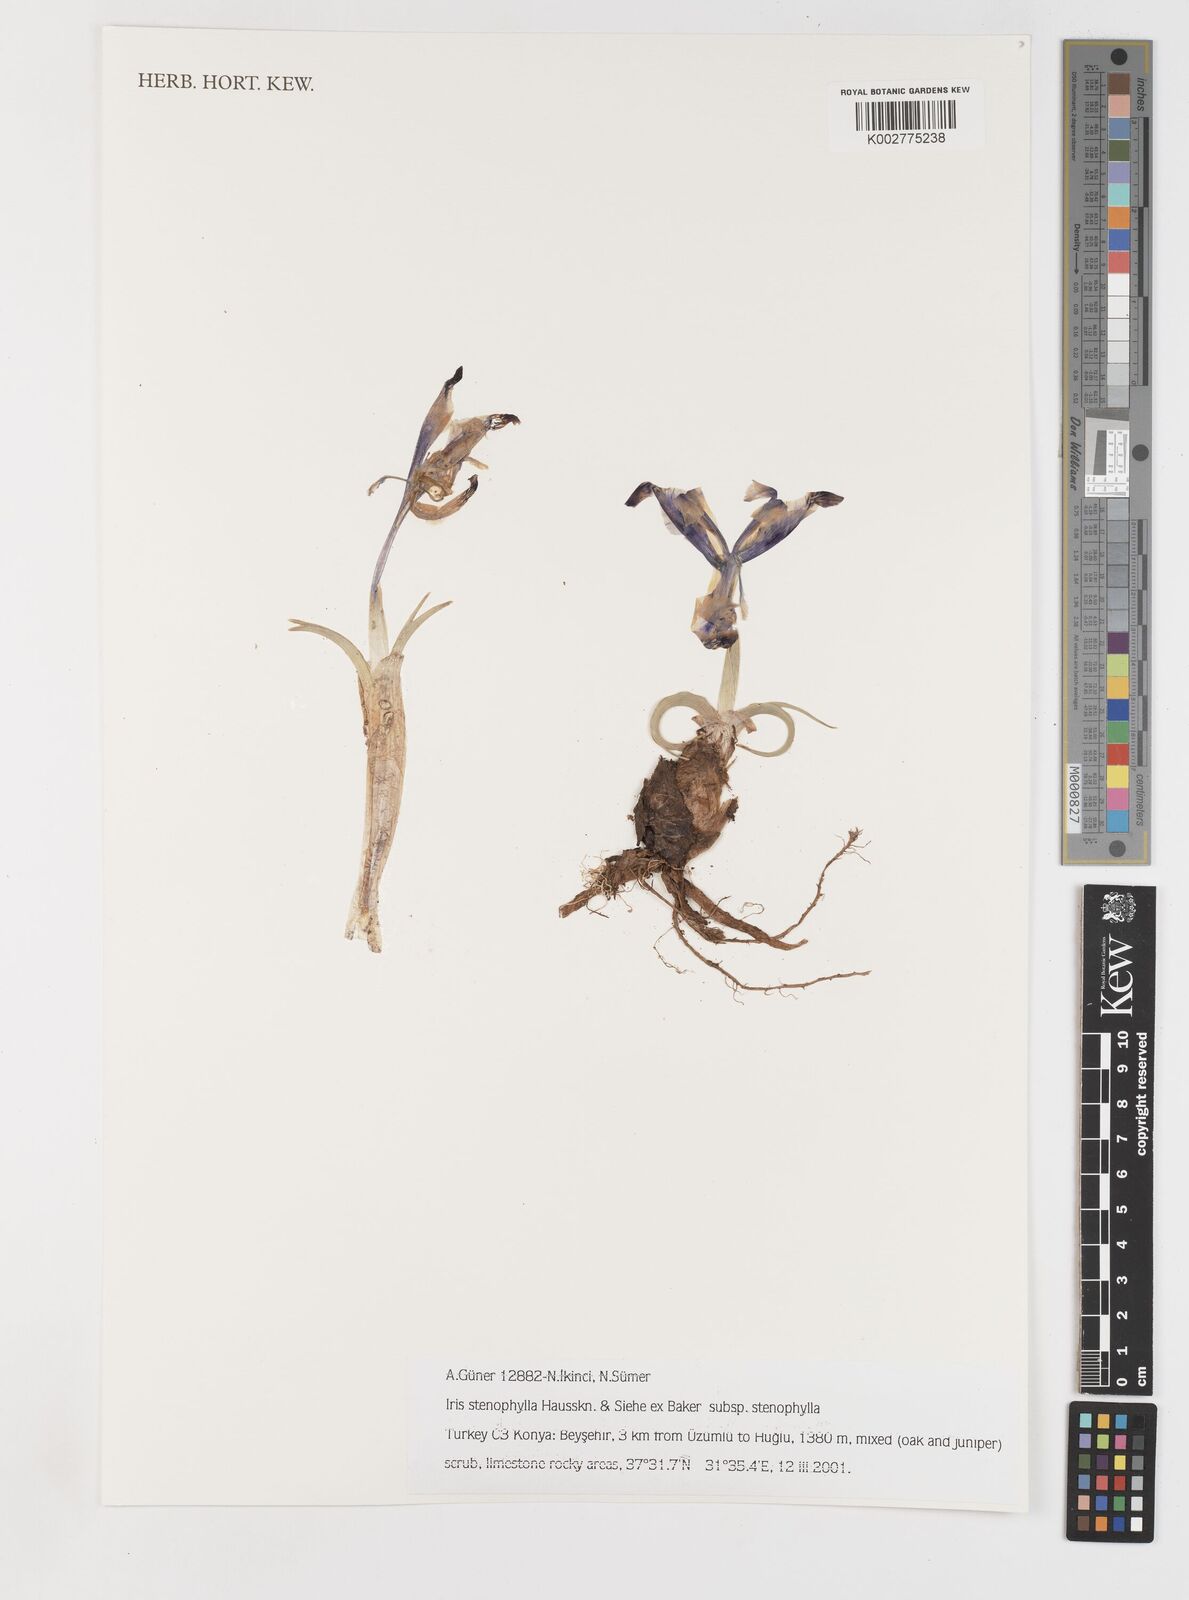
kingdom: Plantae
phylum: Tracheophyta
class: Liliopsida
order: Asparagales
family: Iridaceae
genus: Iris
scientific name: Iris stenophylla
